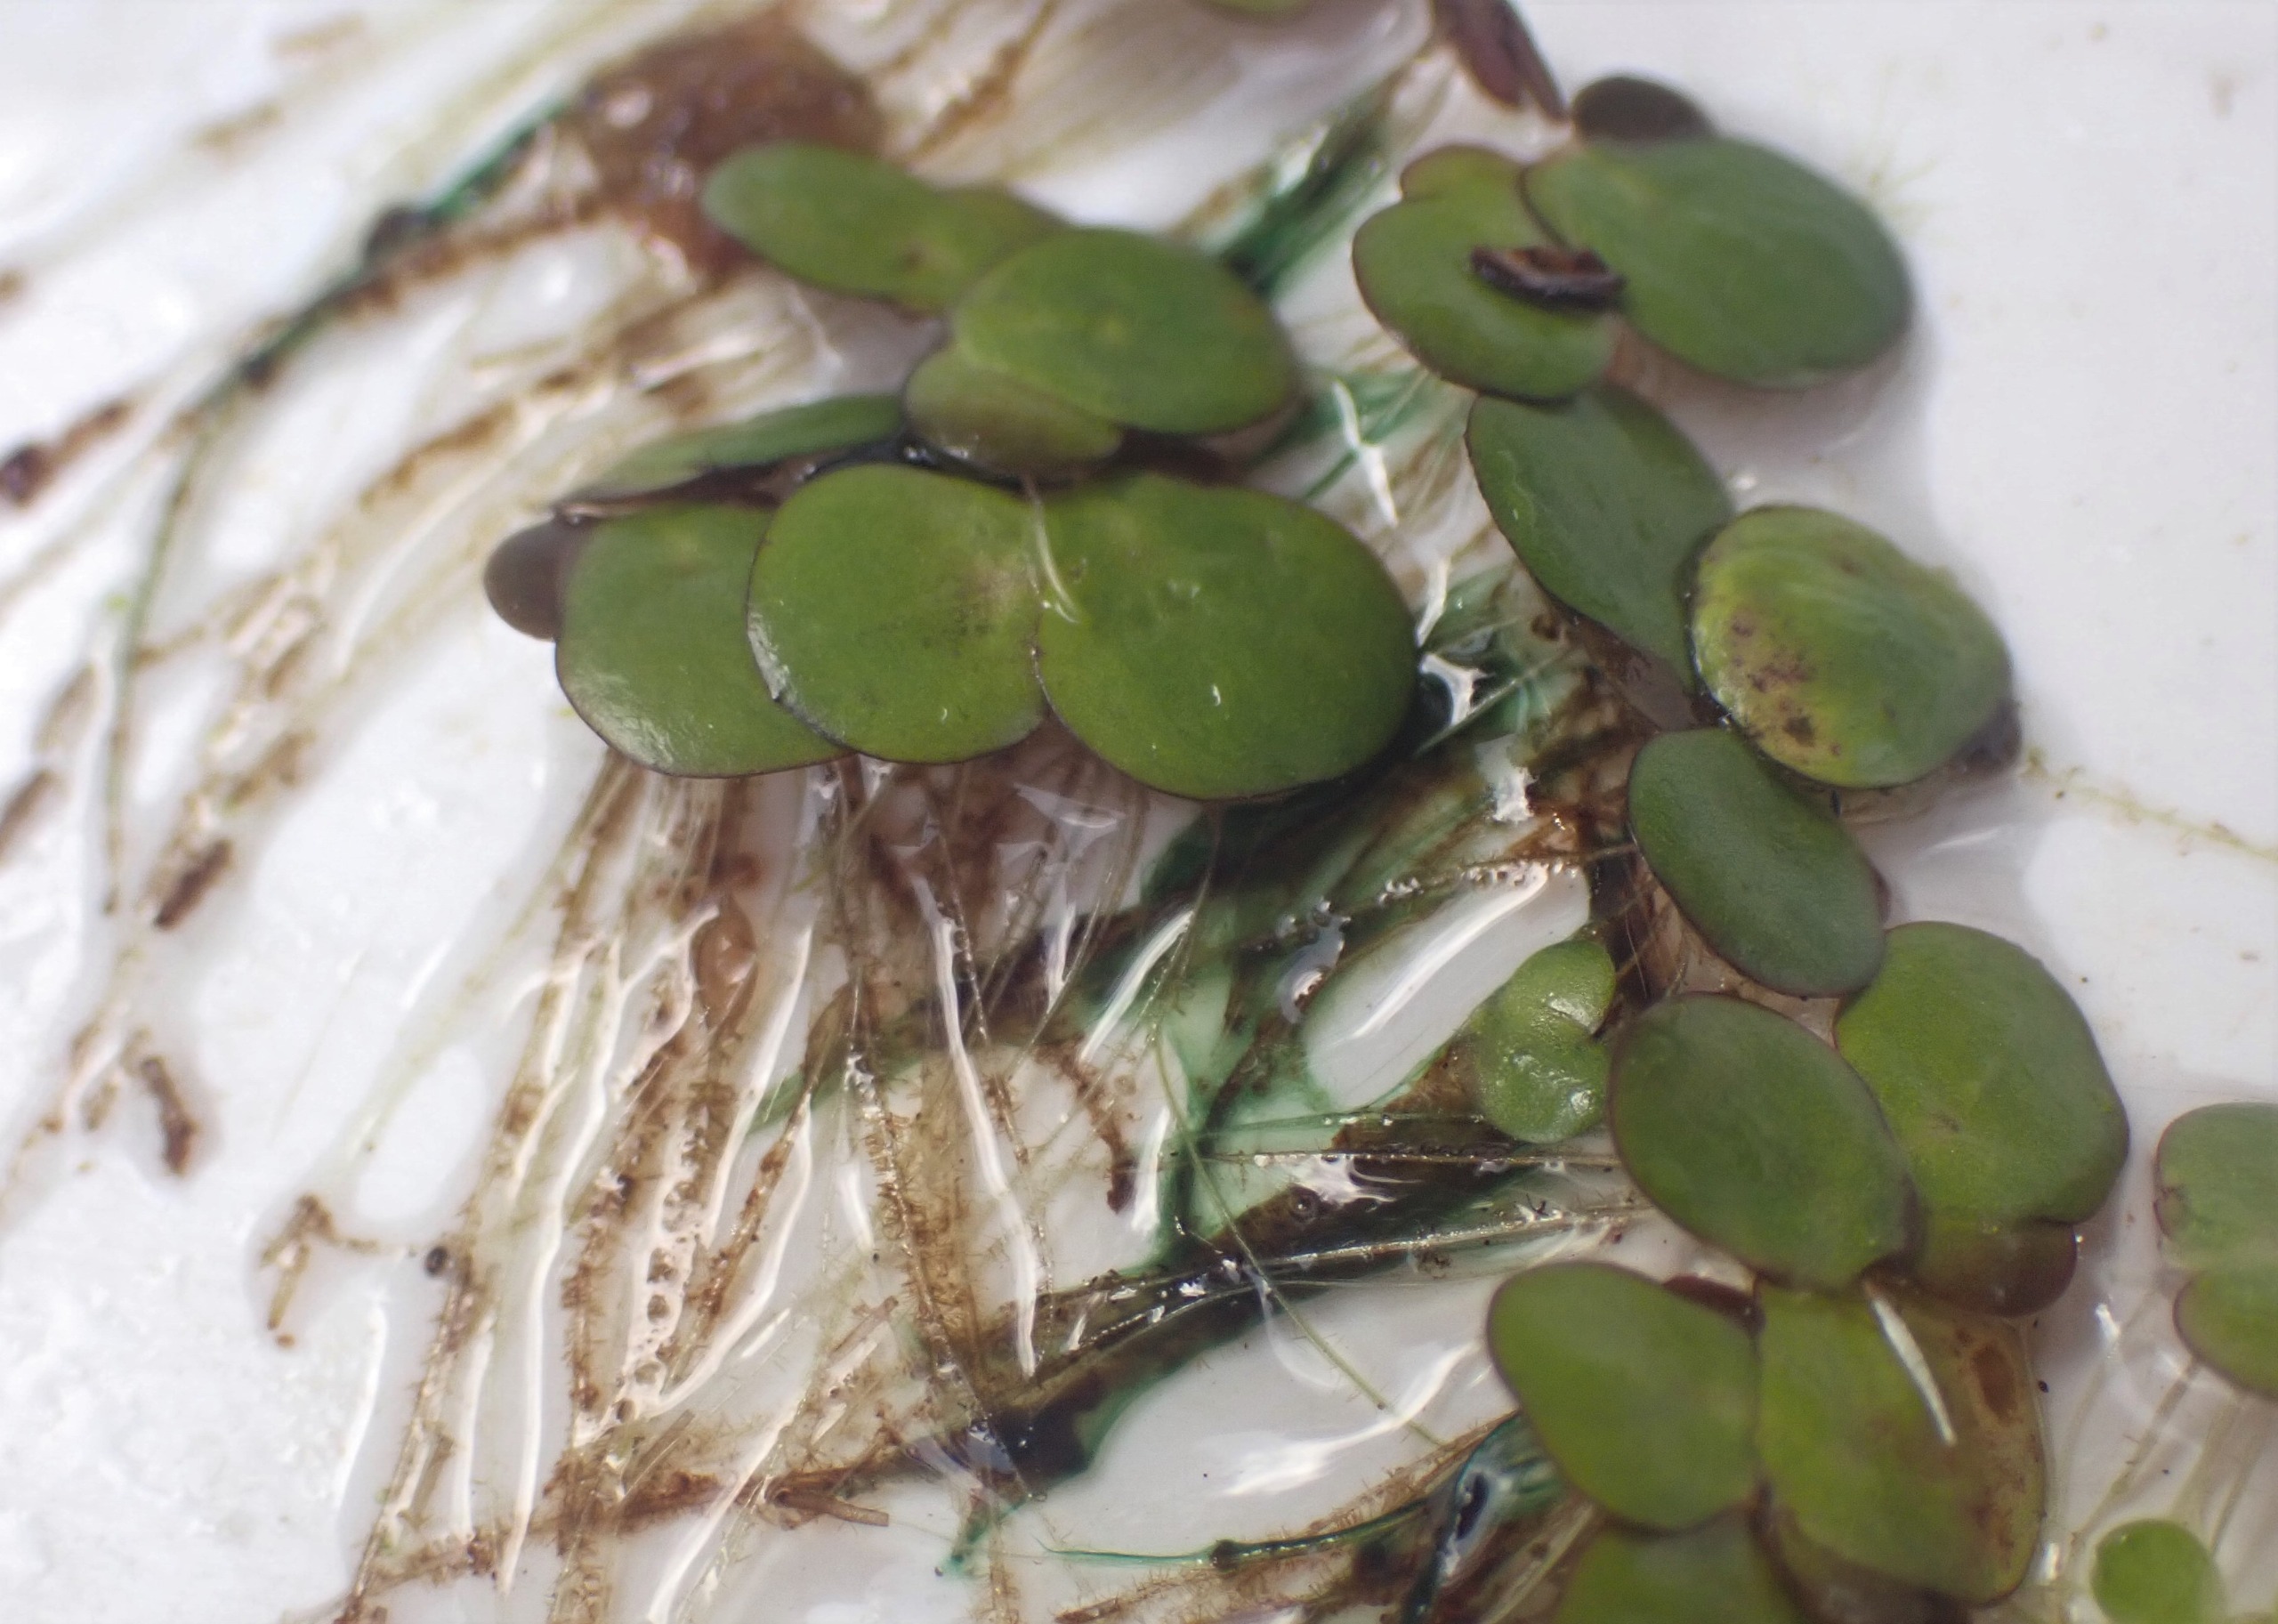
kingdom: Plantae
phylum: Tracheophyta
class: Liliopsida
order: Alismatales
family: Araceae
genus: Spirodela
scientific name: Spirodela polyrhiza
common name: Stor andemad
